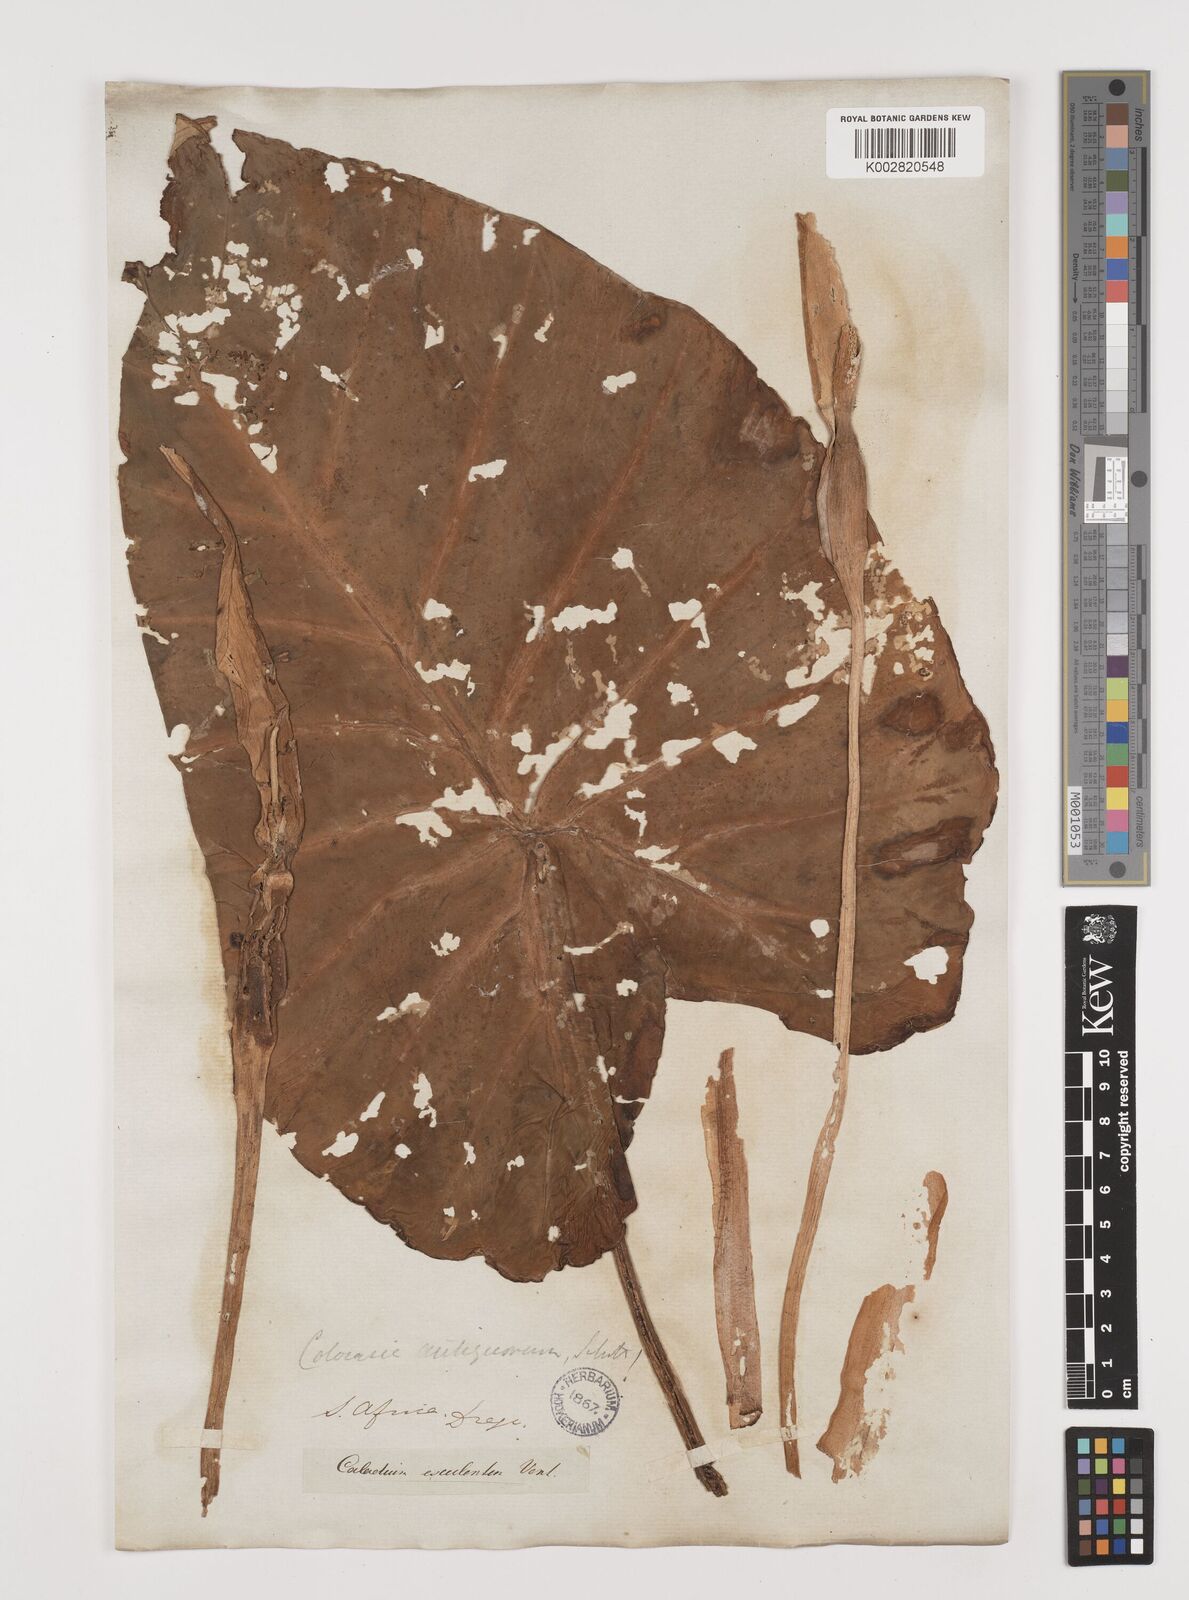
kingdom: Plantae
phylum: Tracheophyta
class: Liliopsida
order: Alismatales
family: Araceae
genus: Colocasia
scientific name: Colocasia esculenta
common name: Taro
